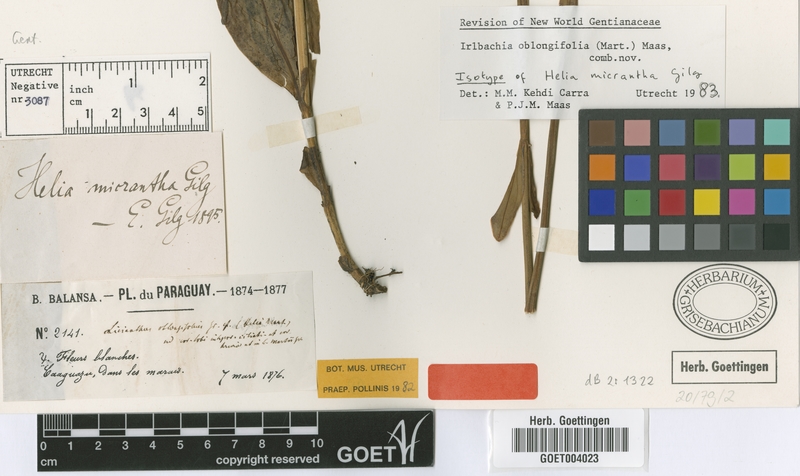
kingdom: Plantae
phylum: Tracheophyta
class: Magnoliopsida
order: Gentianales
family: Gentianaceae
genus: Irlbachia
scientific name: Irlbachia oblongifolia
